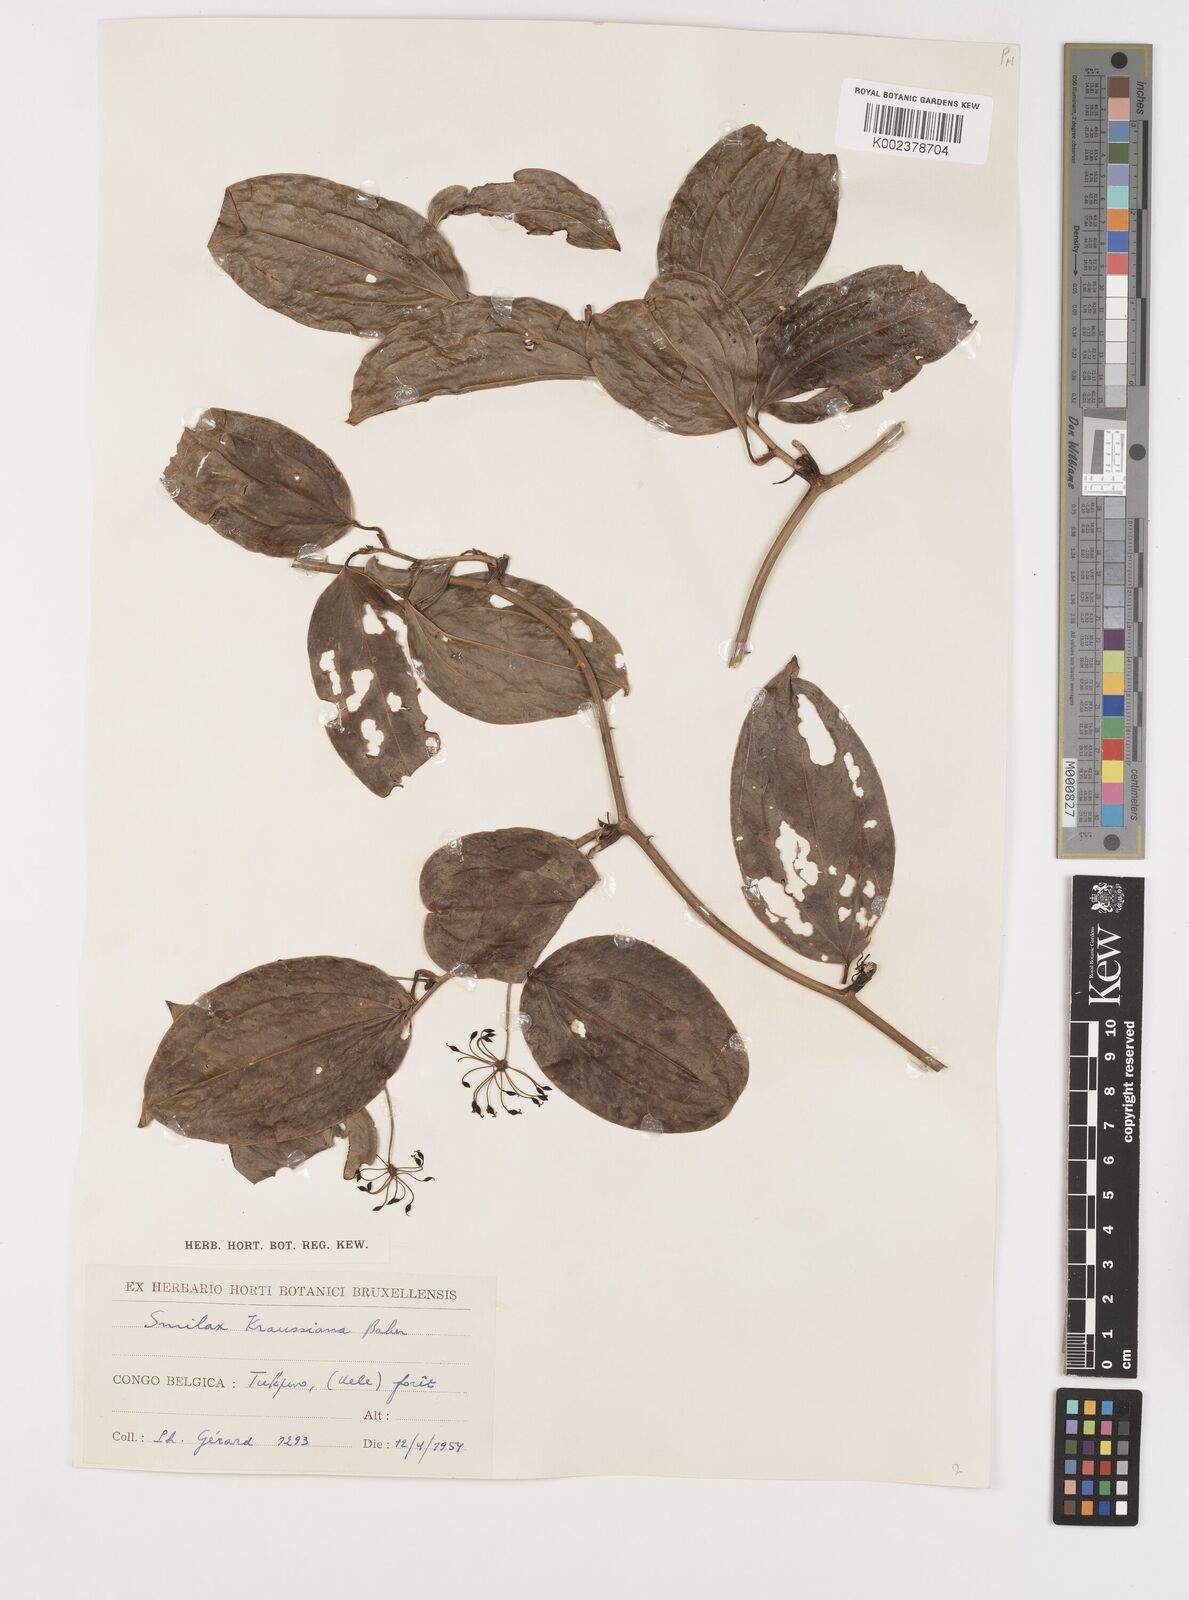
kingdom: Plantae
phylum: Tracheophyta
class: Liliopsida
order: Liliales
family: Smilacaceae
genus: Smilax
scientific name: Smilax anceps
